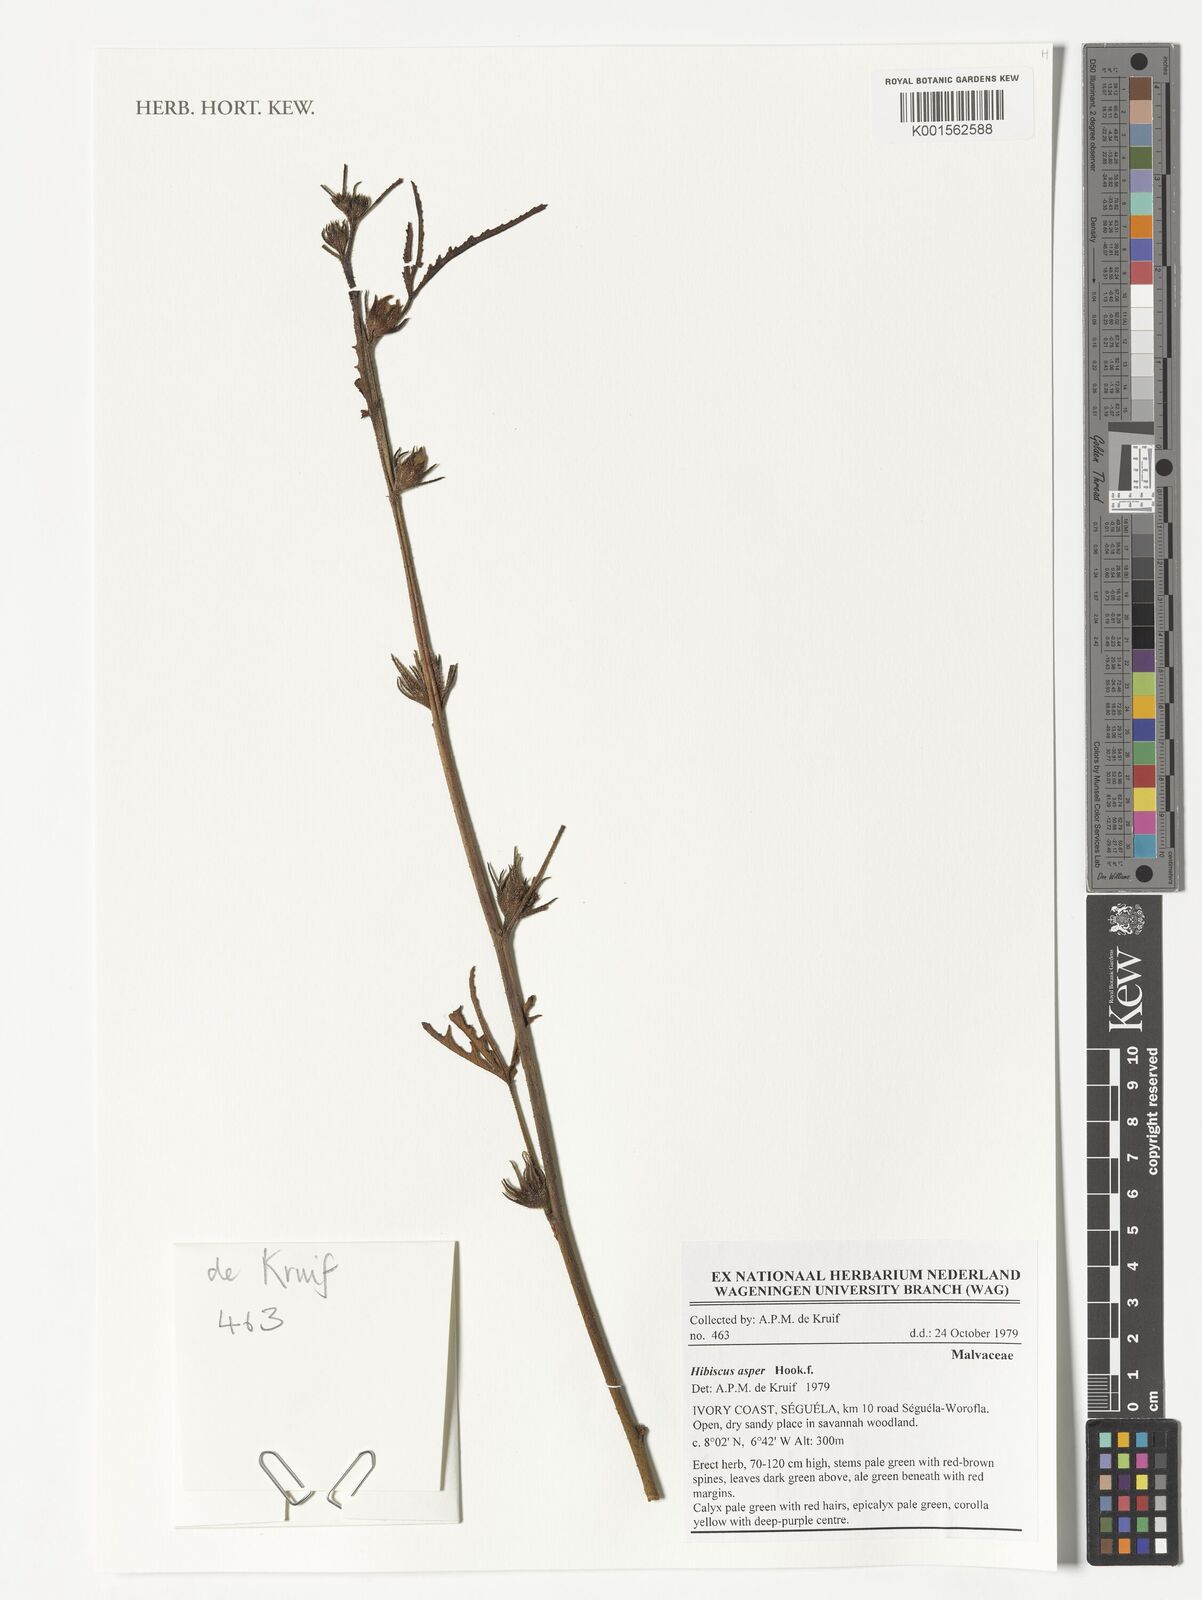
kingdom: Plantae
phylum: Tracheophyta
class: Magnoliopsida
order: Malvales
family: Malvaceae
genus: Hibiscus
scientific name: Hibiscus cannabinus
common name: Brown indianhemp
